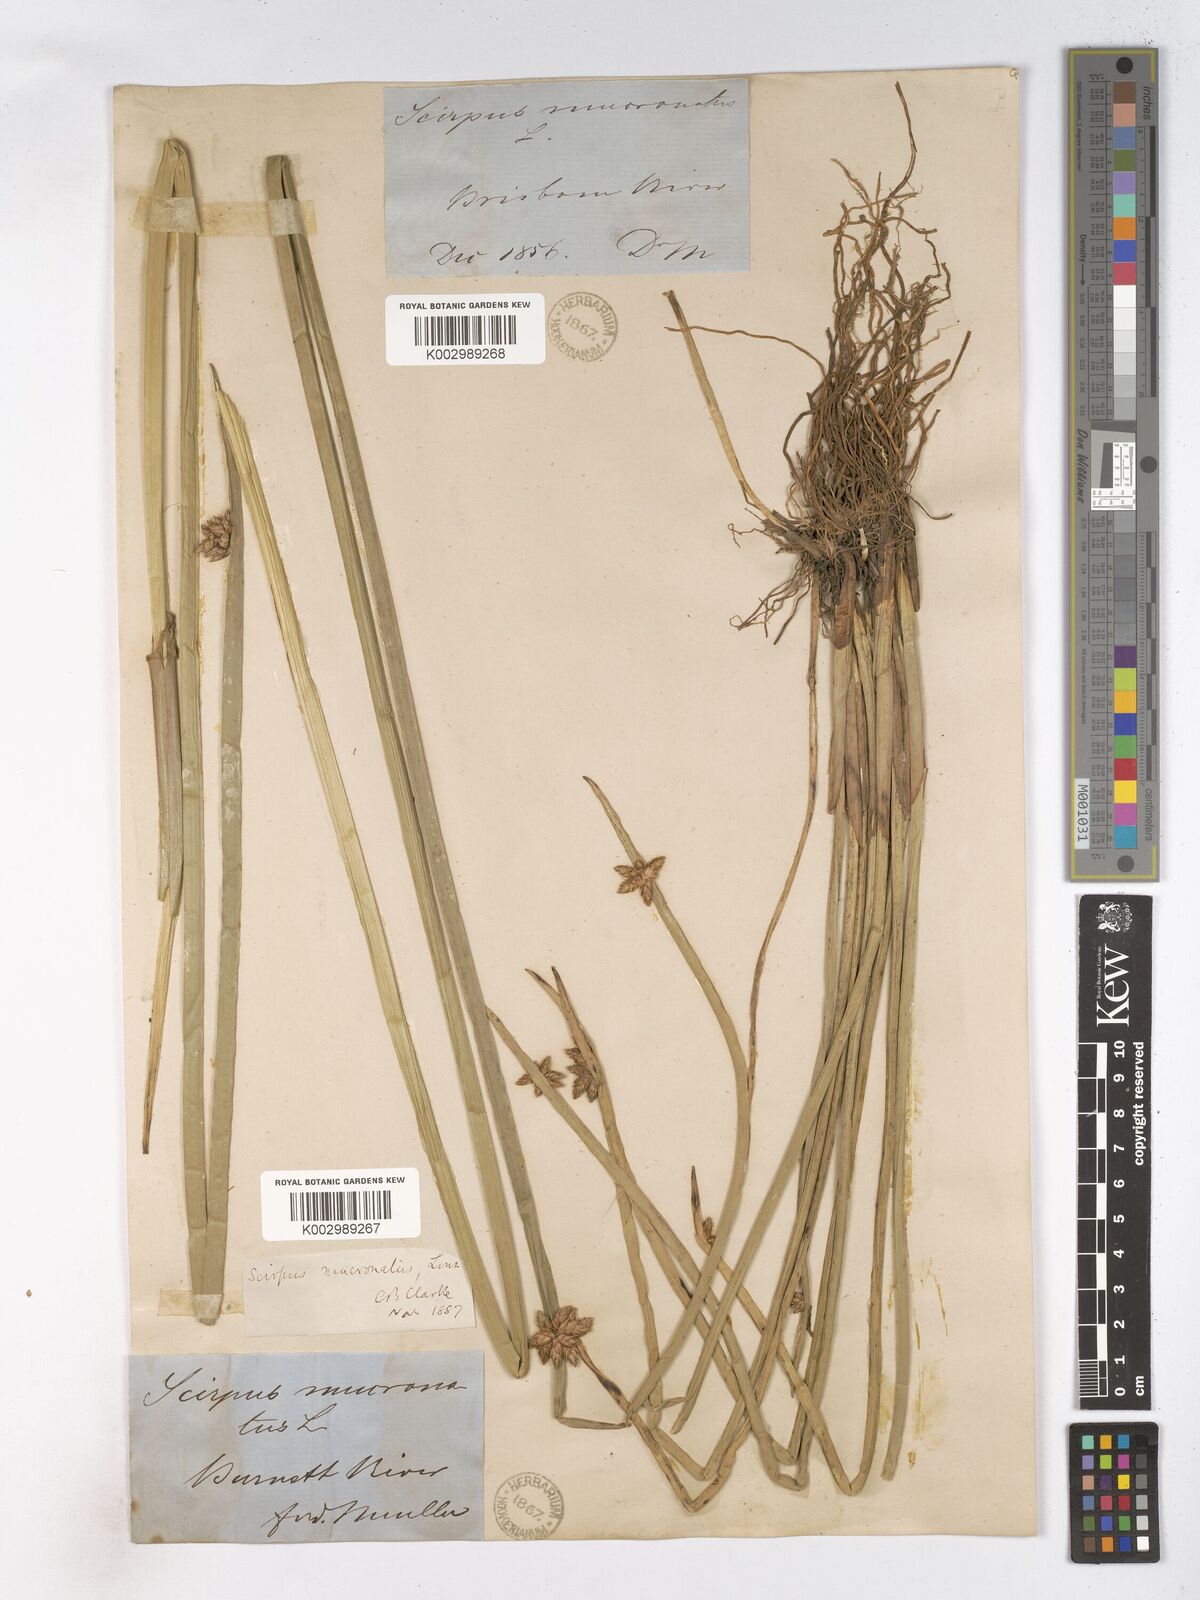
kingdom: Plantae
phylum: Tracheophyta
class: Liliopsida
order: Poales
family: Cyperaceae
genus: Schoenoplectiella
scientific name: Schoenoplectiella mucronata
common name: Bog bulrush
